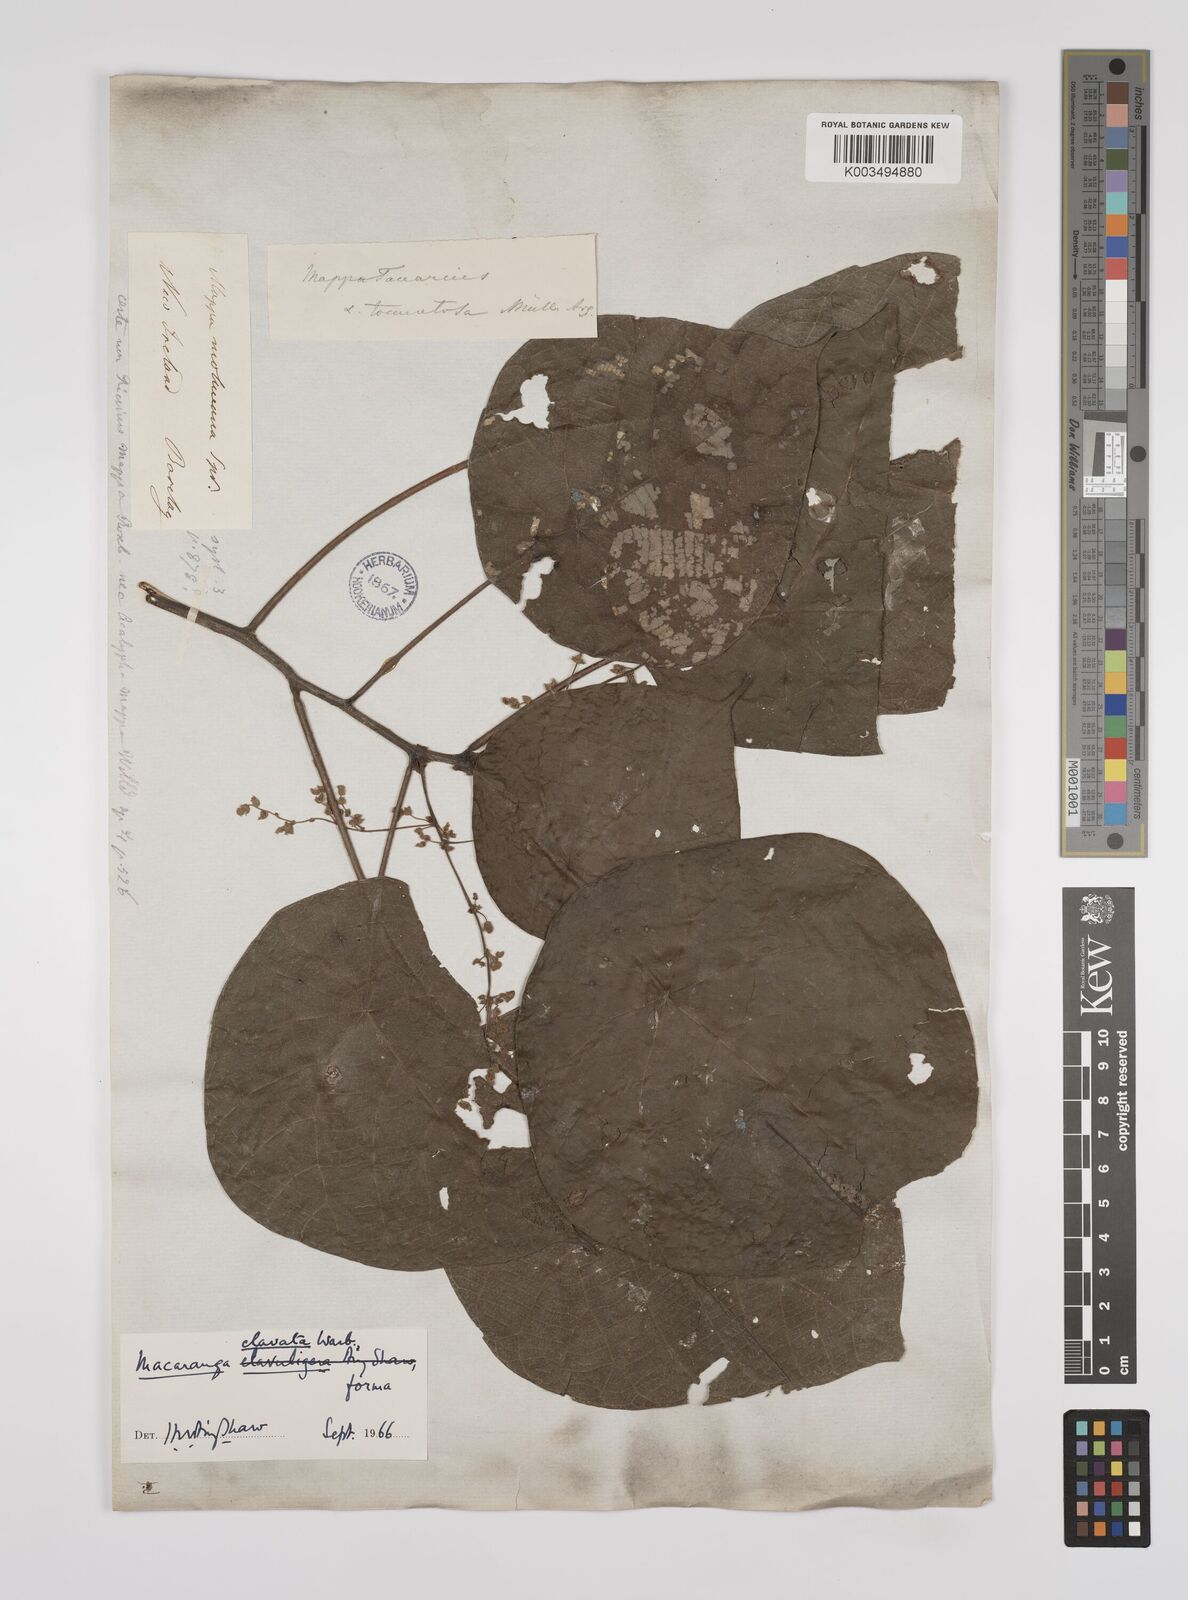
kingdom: Plantae
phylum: Tracheophyta
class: Magnoliopsida
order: Malpighiales
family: Euphorbiaceae
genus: Macaranga
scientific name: Macaranga clavata
